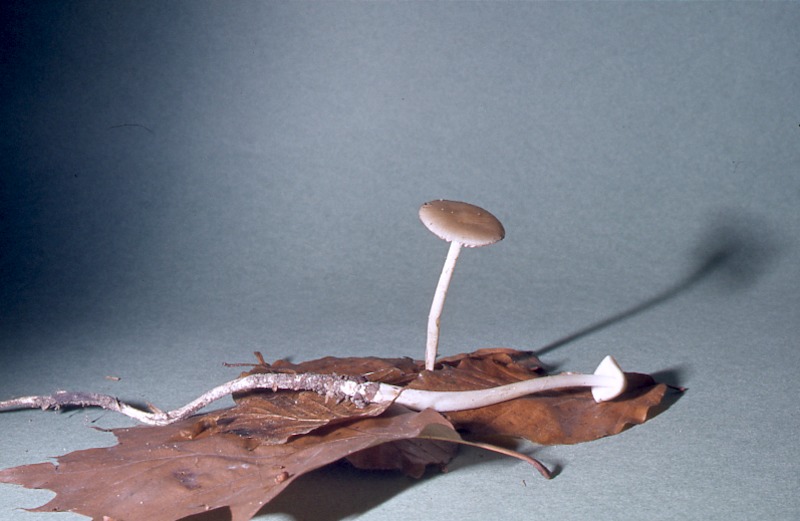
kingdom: Fungi
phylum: Basidiomycota
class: Agaricomycetes
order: Agaricales
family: Physalacriaceae
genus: Hymenopellis
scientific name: Hymenopellis radicata
